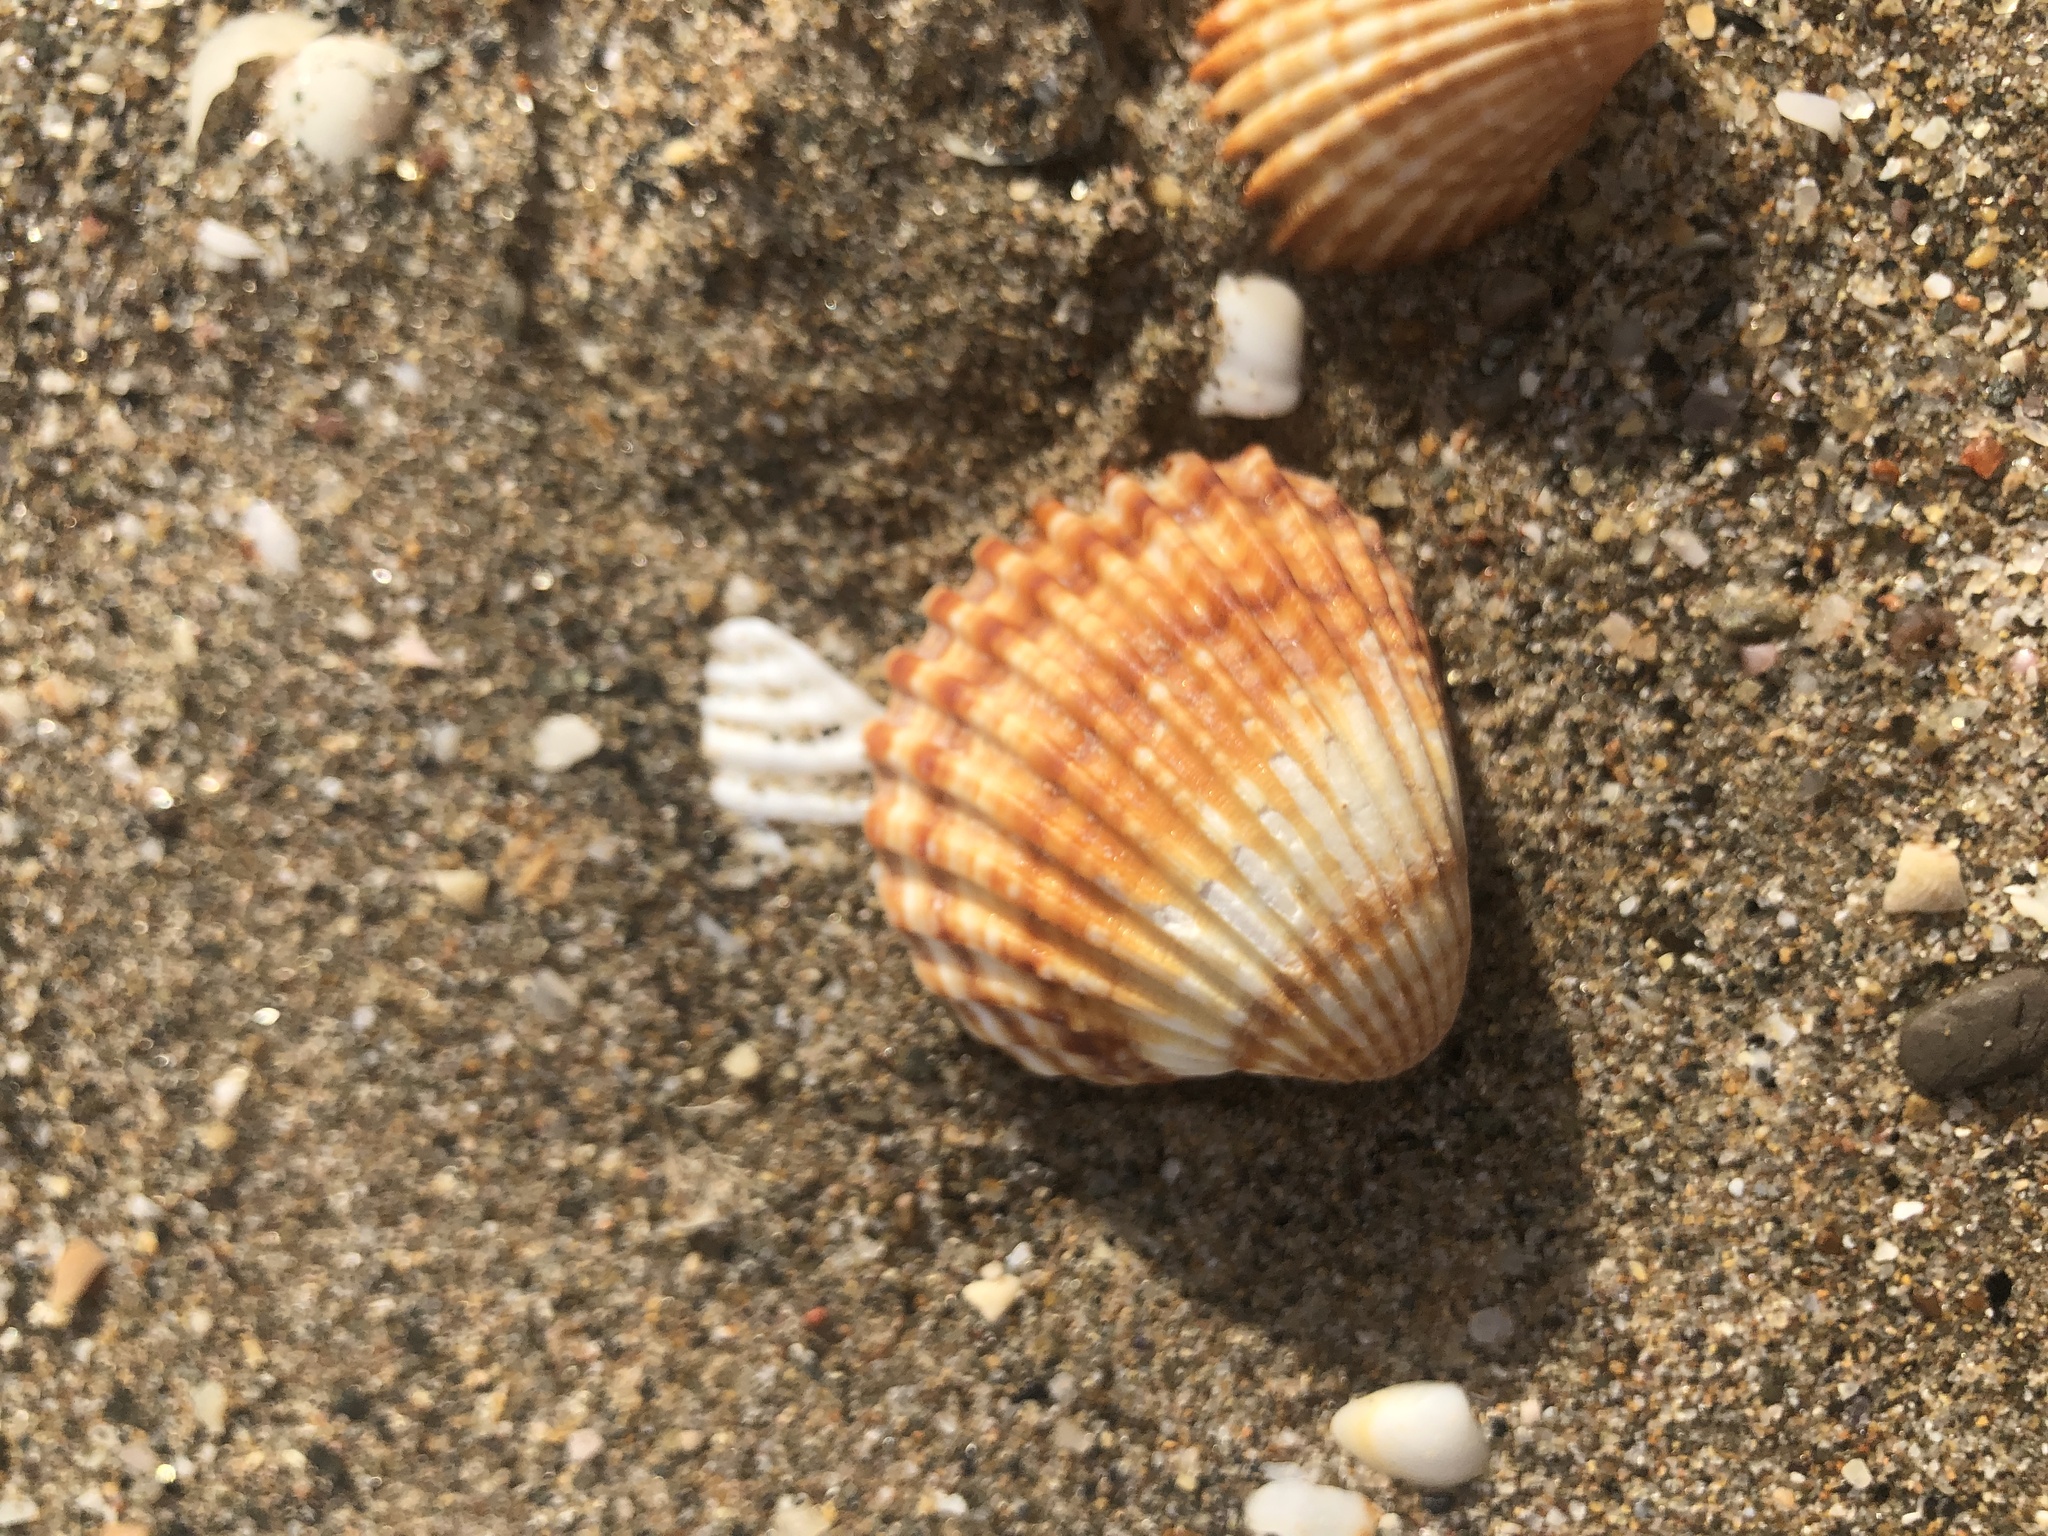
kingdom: Animalia
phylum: Mollusca
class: Bivalvia
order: Cardiida
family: Cardiidae
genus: Acanthocardia
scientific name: Acanthocardia tuberculata
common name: Rough cockle
